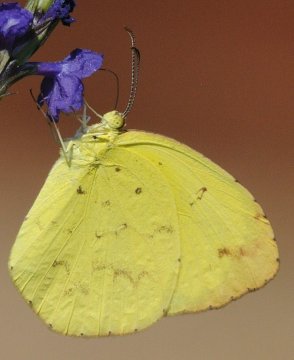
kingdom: Animalia
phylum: Arthropoda
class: Insecta
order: Lepidoptera
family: Pieridae
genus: Eurema
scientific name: Eurema desjardinsii
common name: Angled Grass Yellow
